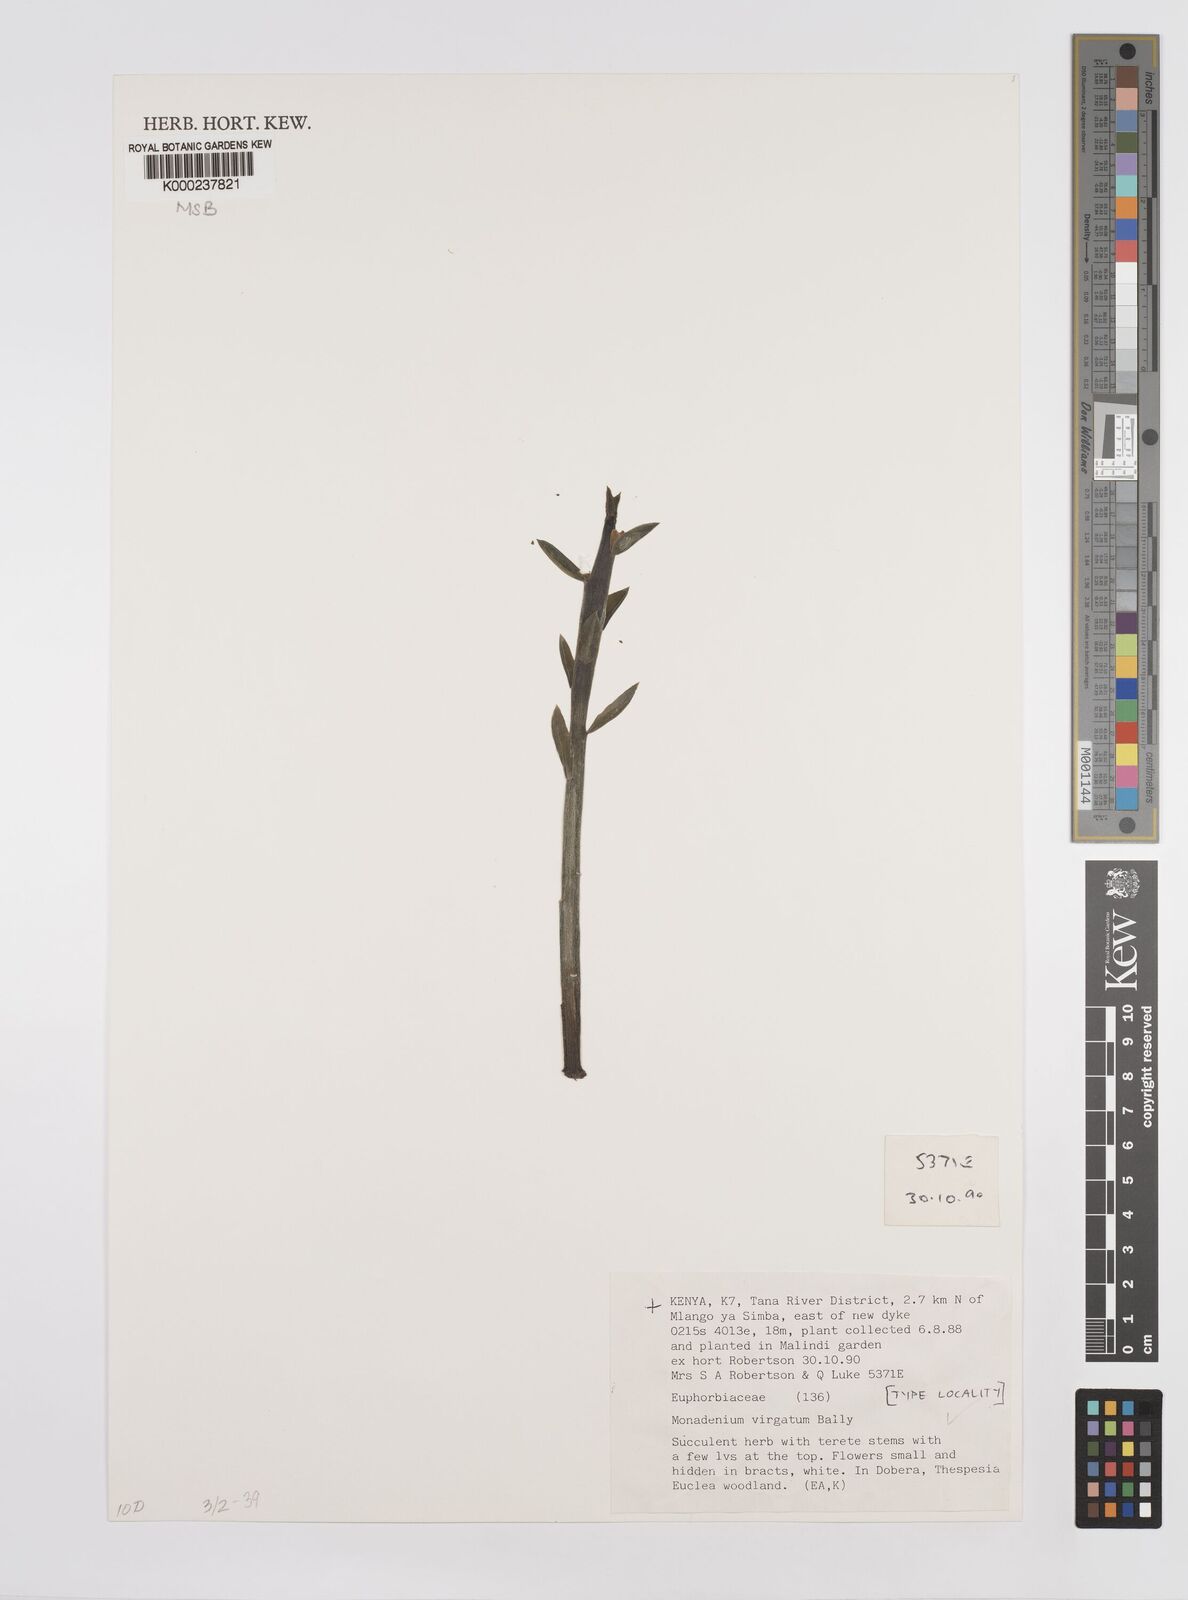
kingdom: Plantae
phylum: Tracheophyta
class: Magnoliopsida
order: Malpighiales
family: Euphorbiaceae
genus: Euphorbia
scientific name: Euphorbia neovirgata
